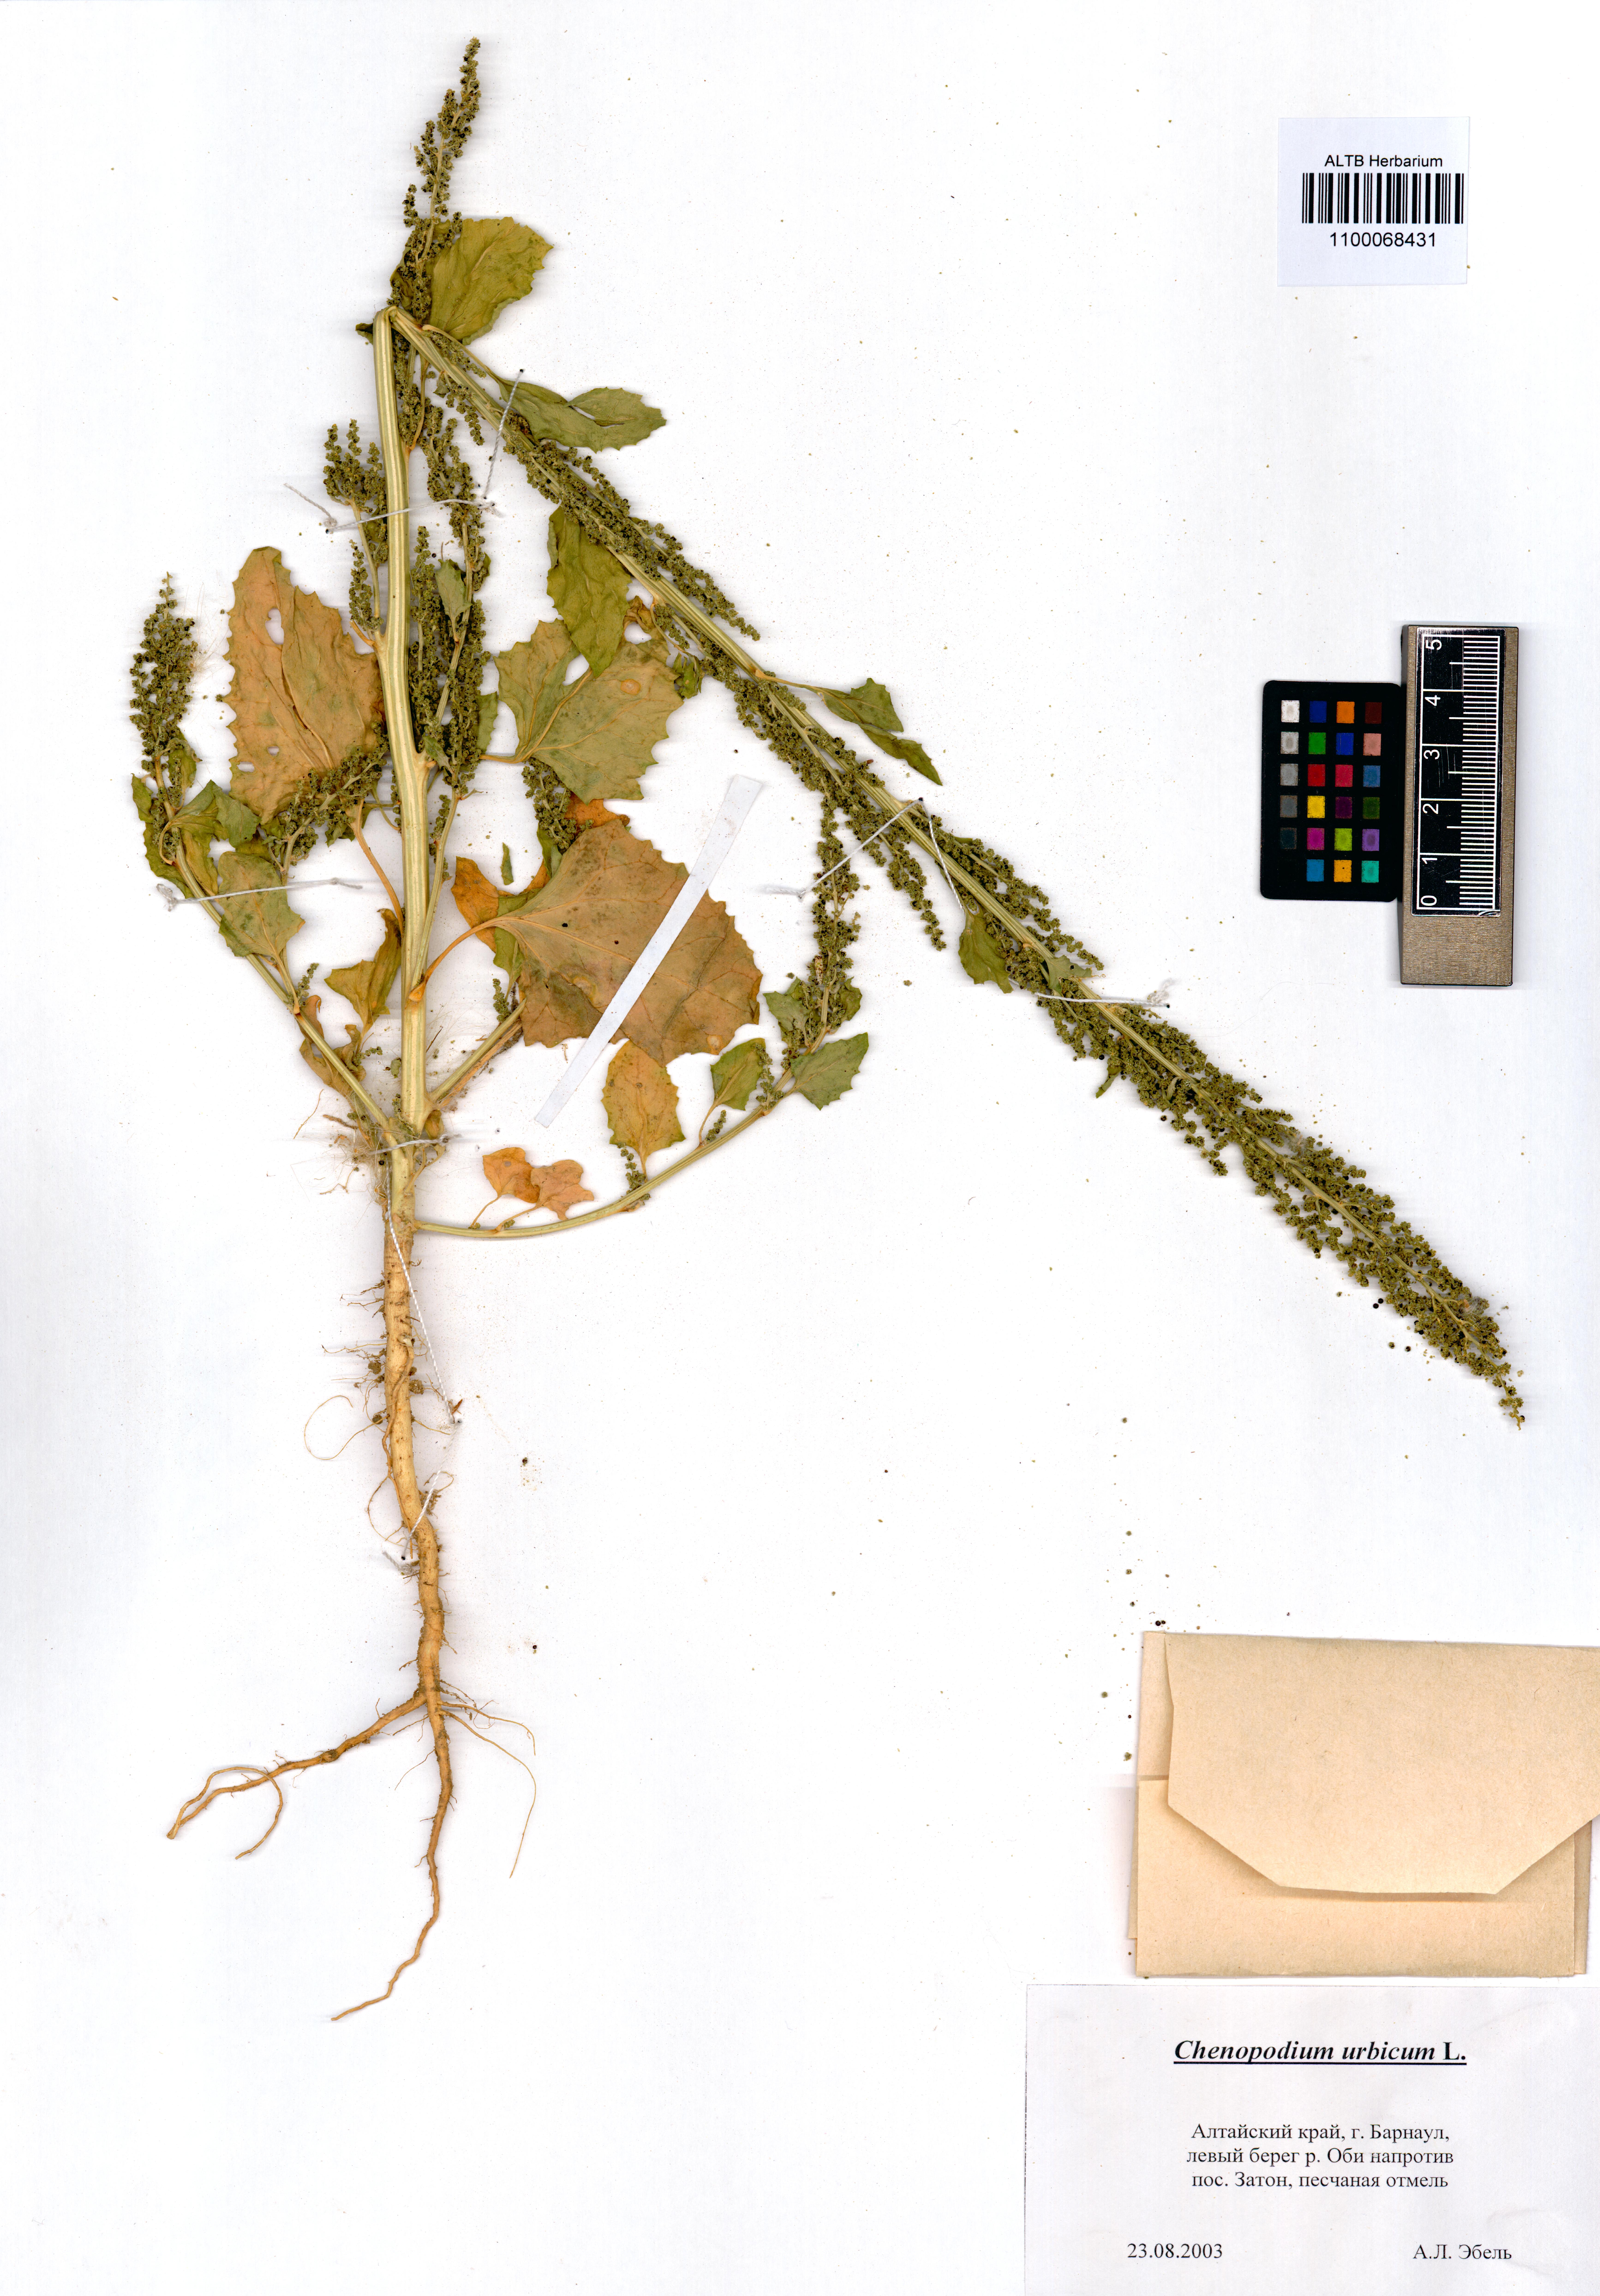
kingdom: Plantae
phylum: Tracheophyta
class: Magnoliopsida
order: Caryophyllales
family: Amaranthaceae
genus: Oxybasis
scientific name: Oxybasis urbica
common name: City goosefoot
